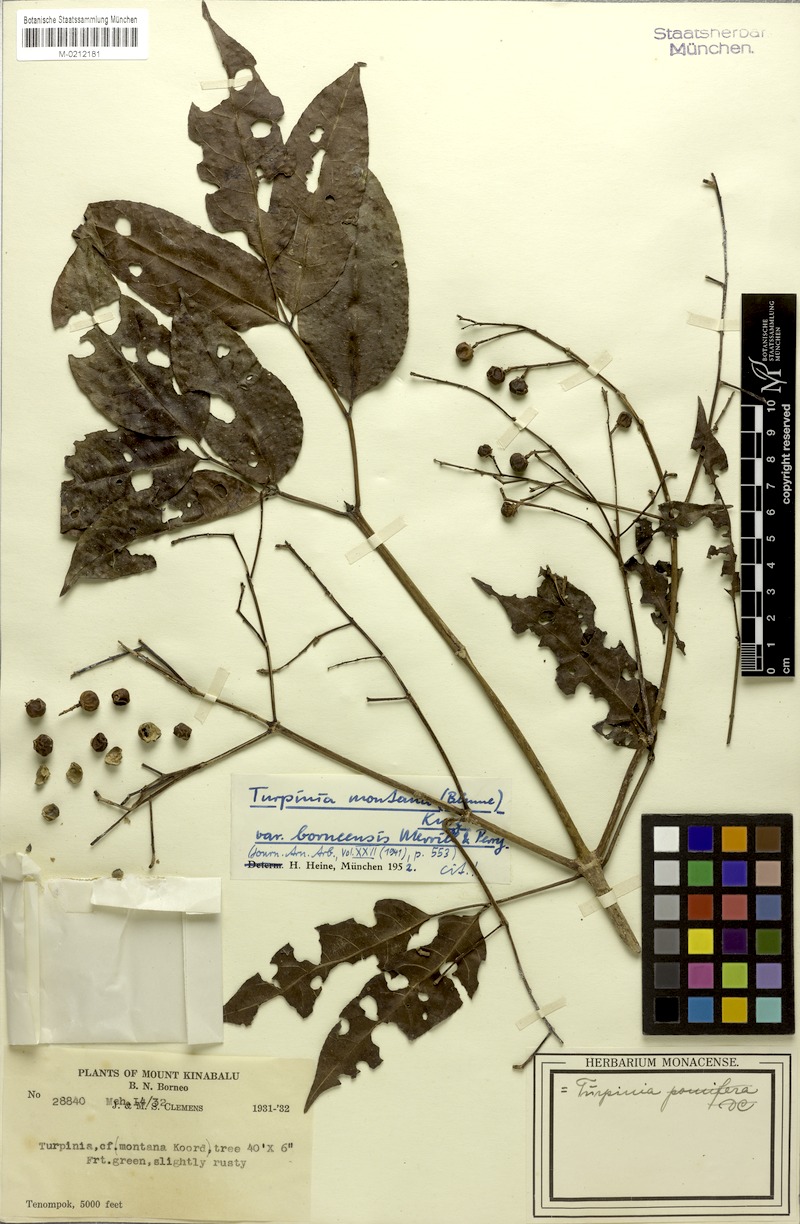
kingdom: Plantae
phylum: Tracheophyta
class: Magnoliopsida
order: Crossosomatales
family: Staphyleaceae
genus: Dalrympelea
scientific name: Dalrympelea borneensis
